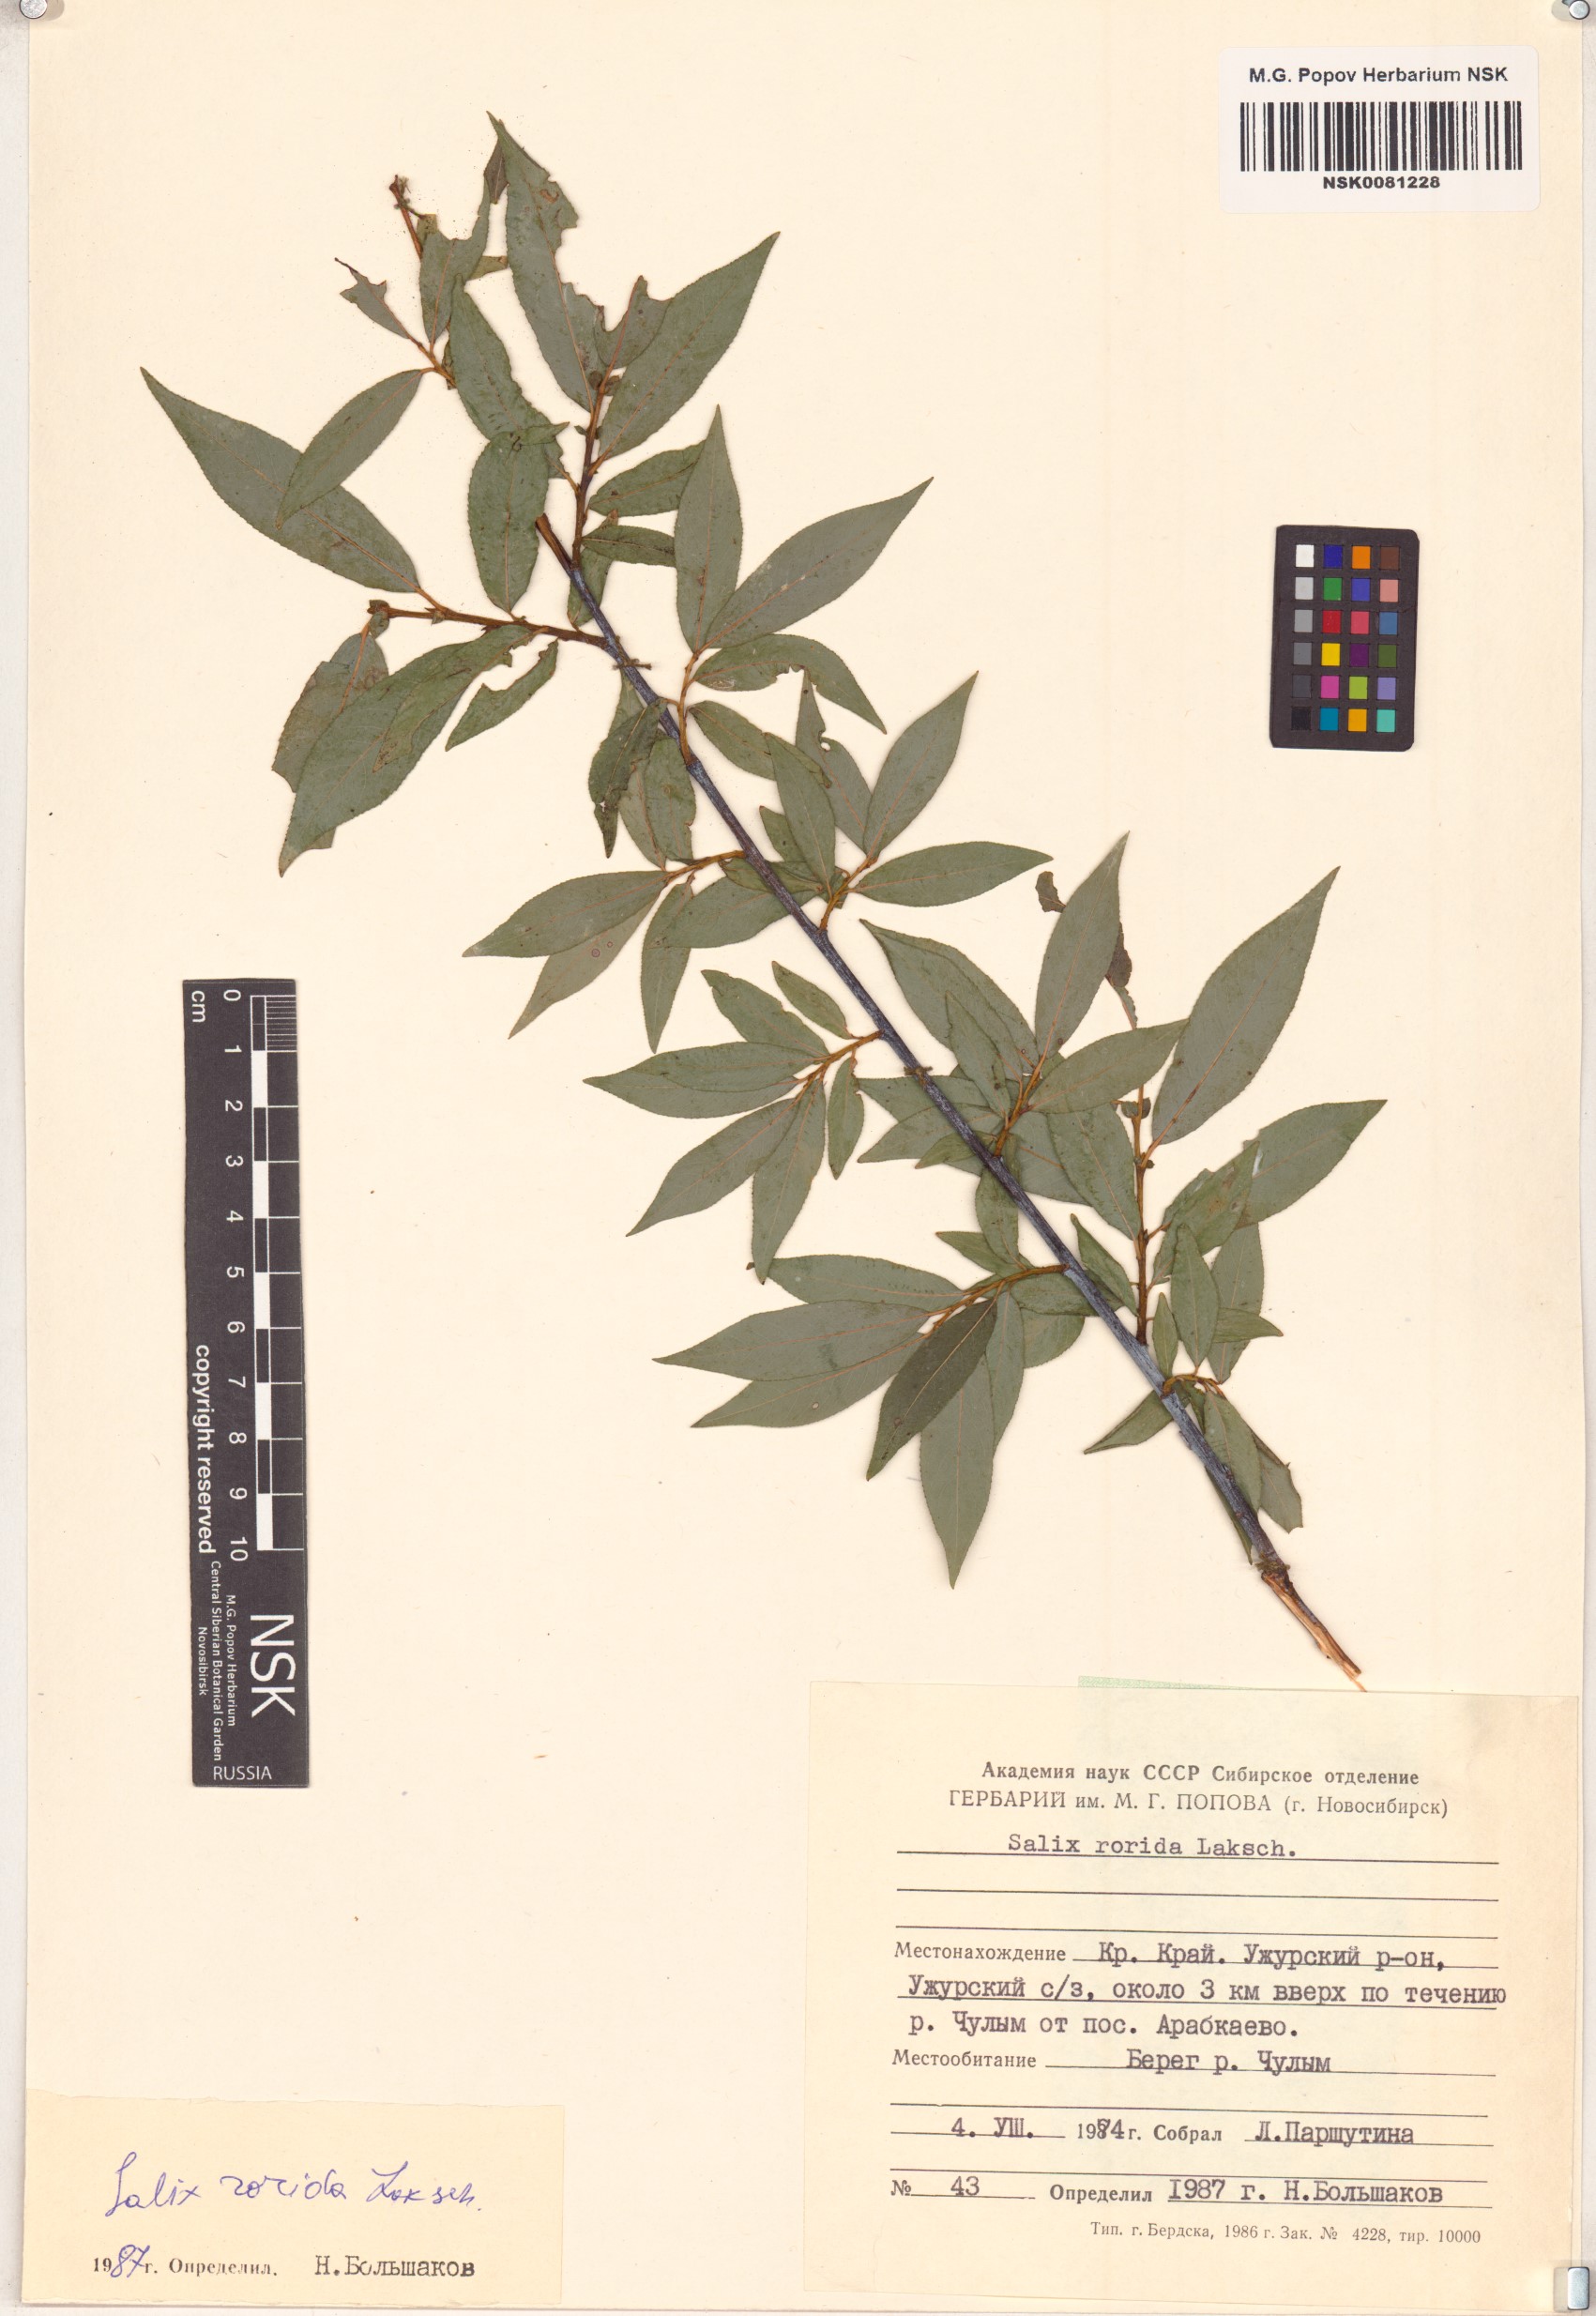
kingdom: Plantae
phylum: Tracheophyta
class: Magnoliopsida
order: Malpighiales
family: Salicaceae
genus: Salix
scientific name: Salix rorida
